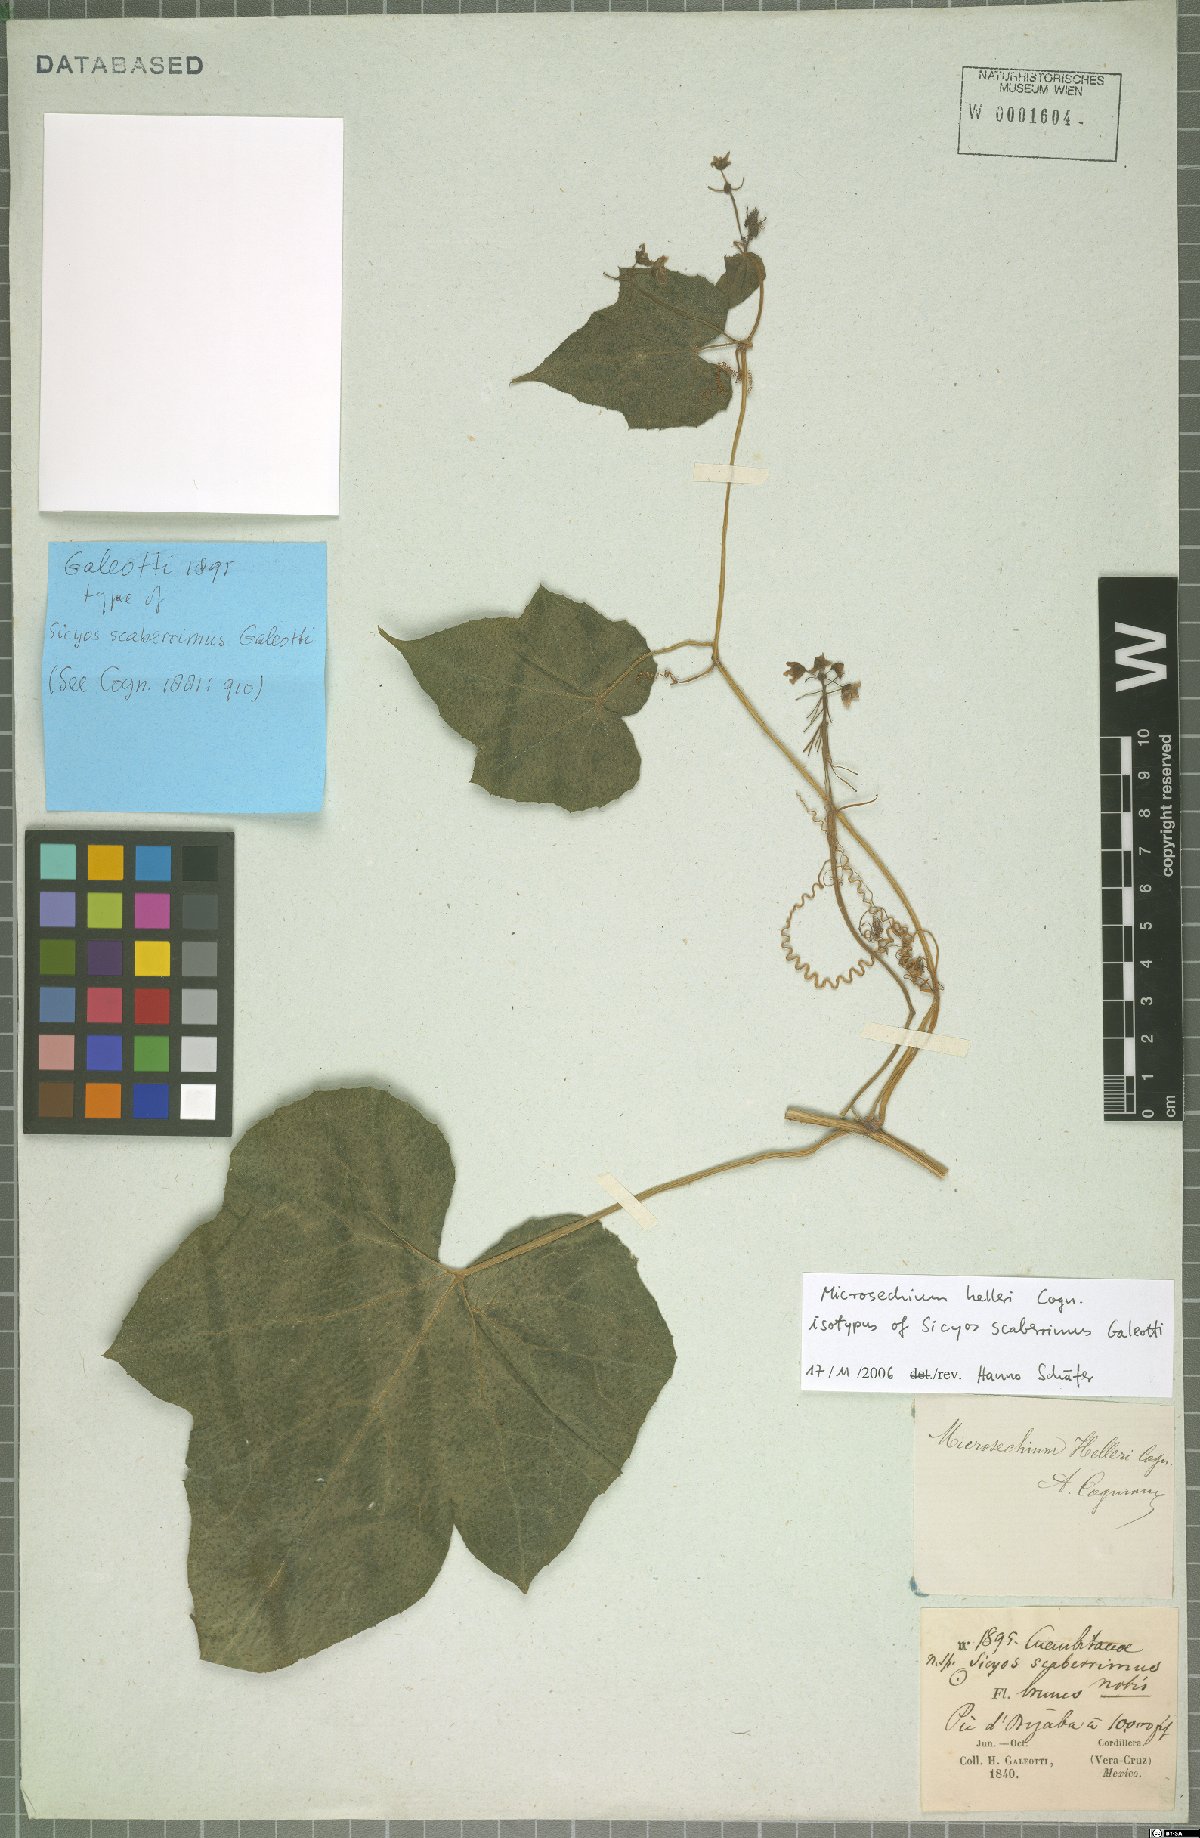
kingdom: Plantae
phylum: Tracheophyta
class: Magnoliopsida
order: Cucurbitales
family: Cucurbitaceae
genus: Microsechium
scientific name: Microsechium palmatum
